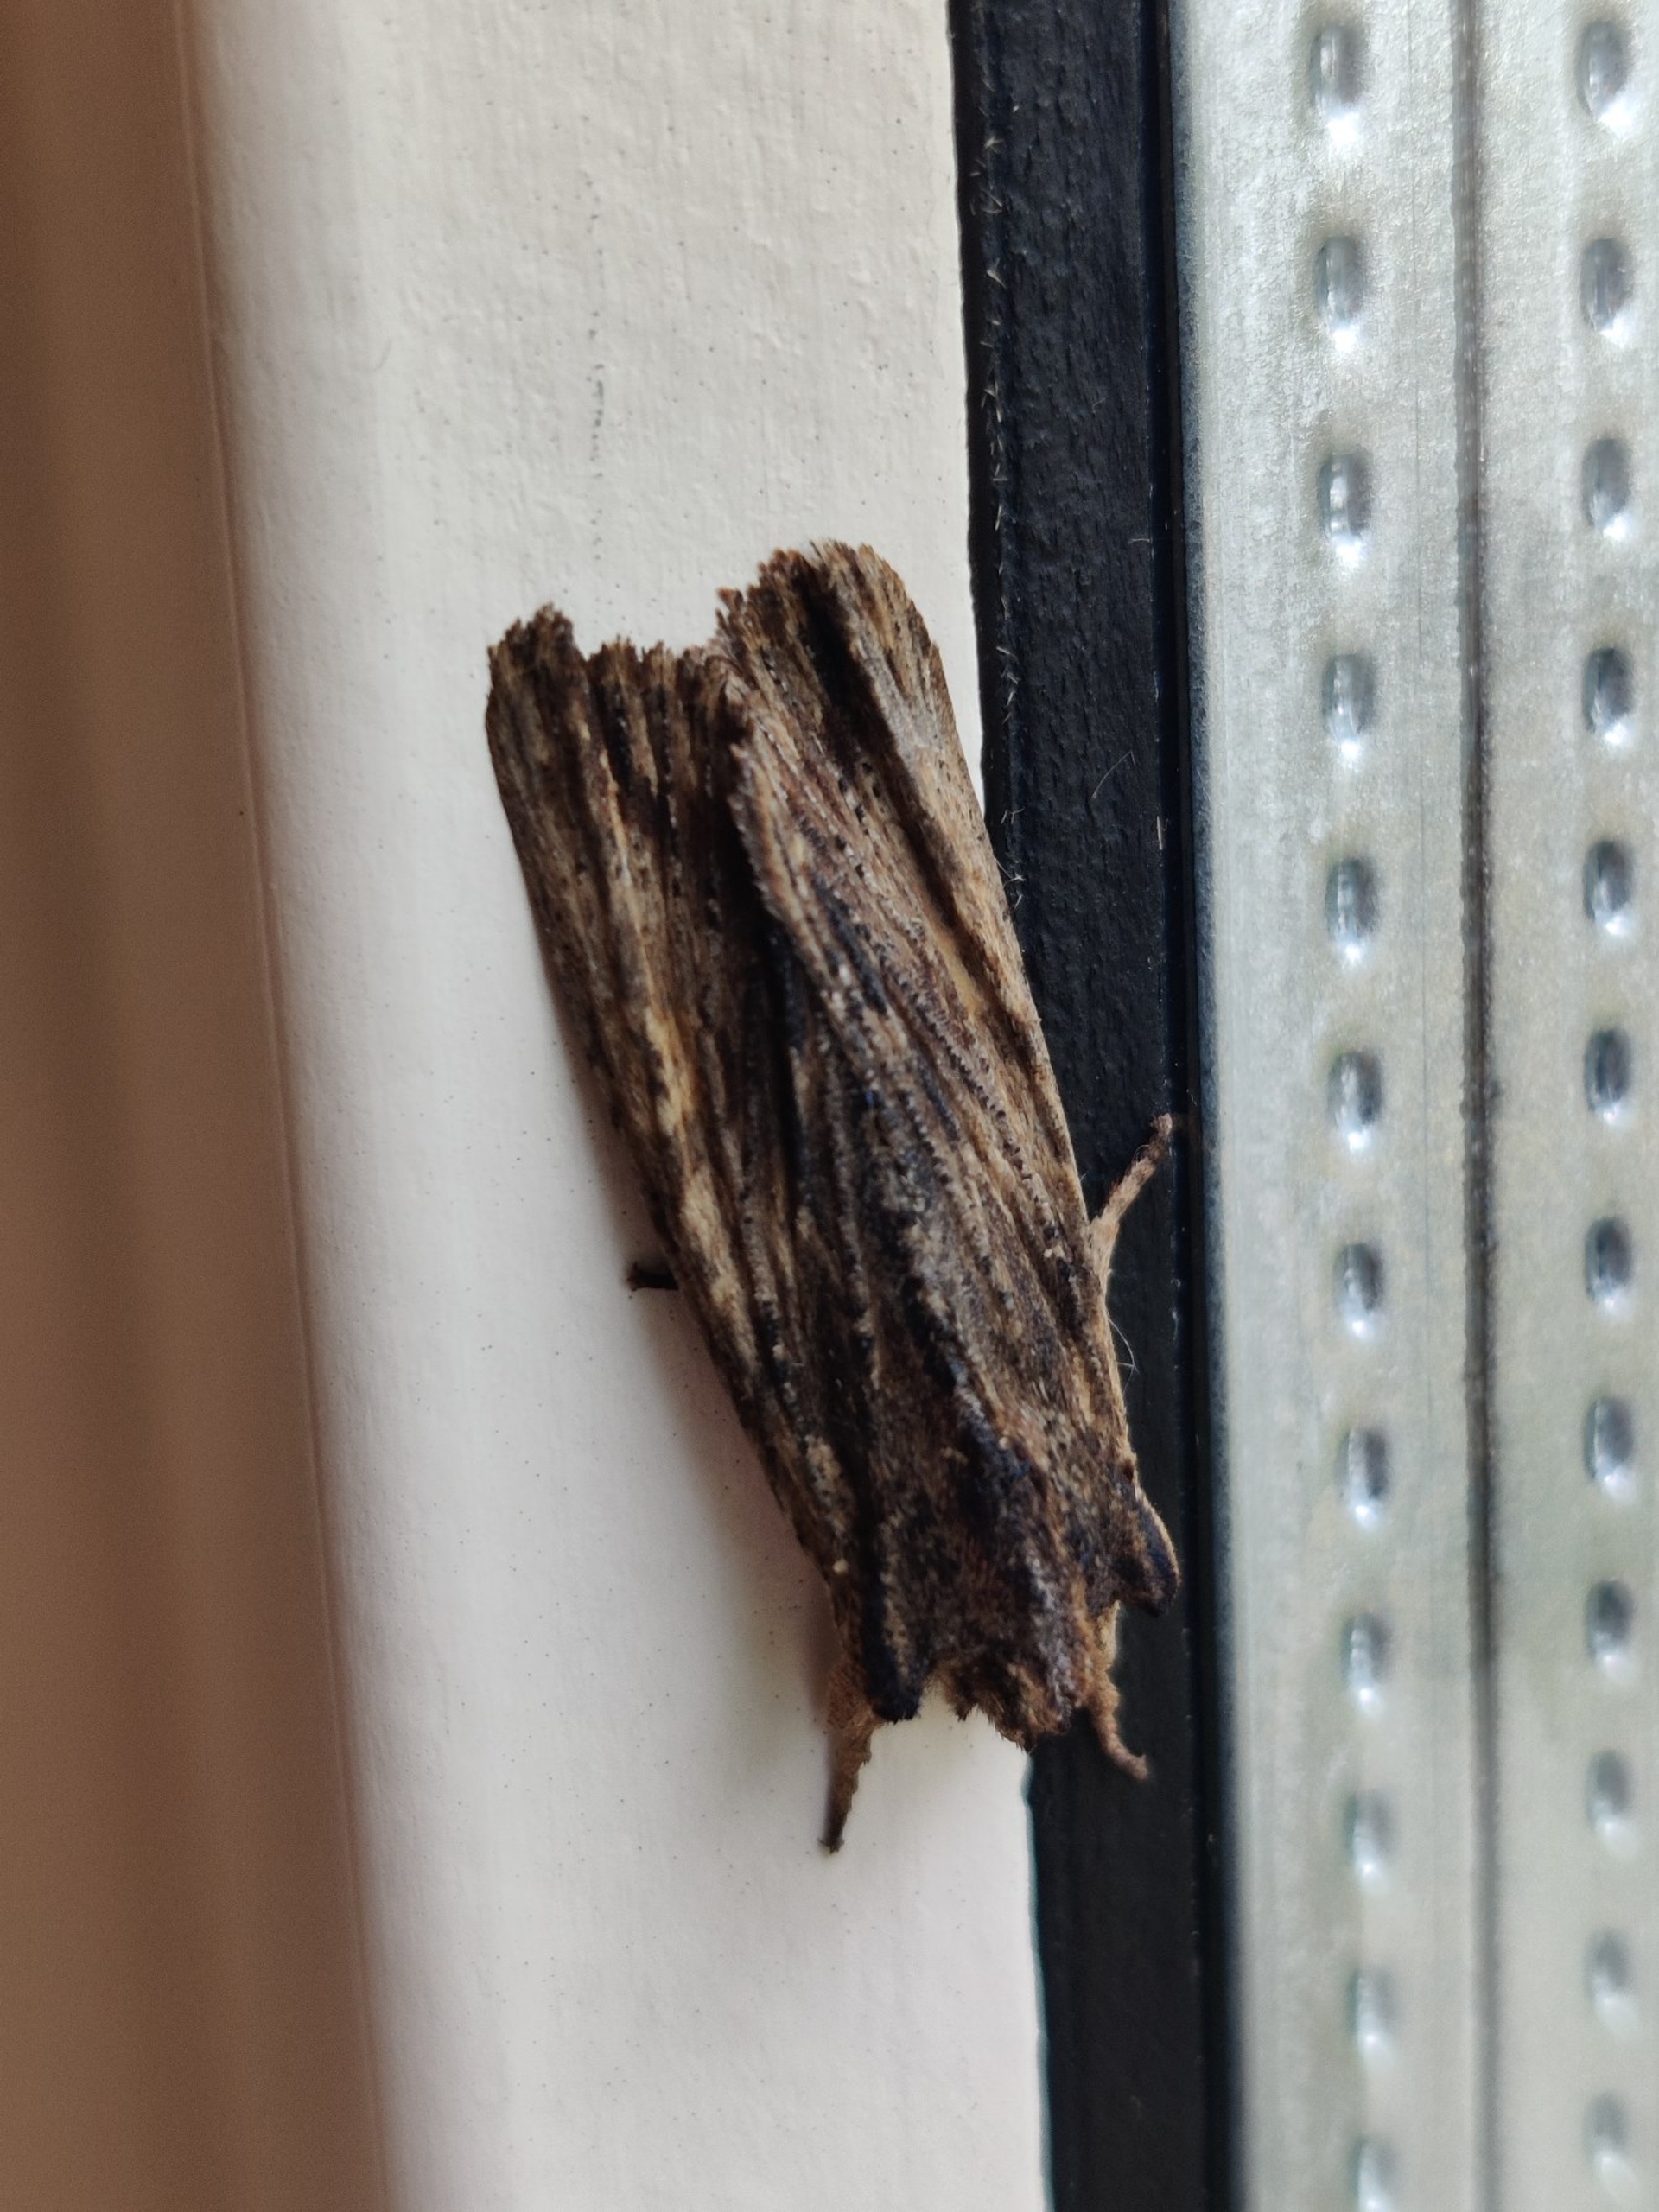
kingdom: Animalia
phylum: Arthropoda
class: Insecta
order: Lepidoptera
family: Noctuidae
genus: Lithophane
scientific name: Lithophane semibrunnea
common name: Birke-stenugle
